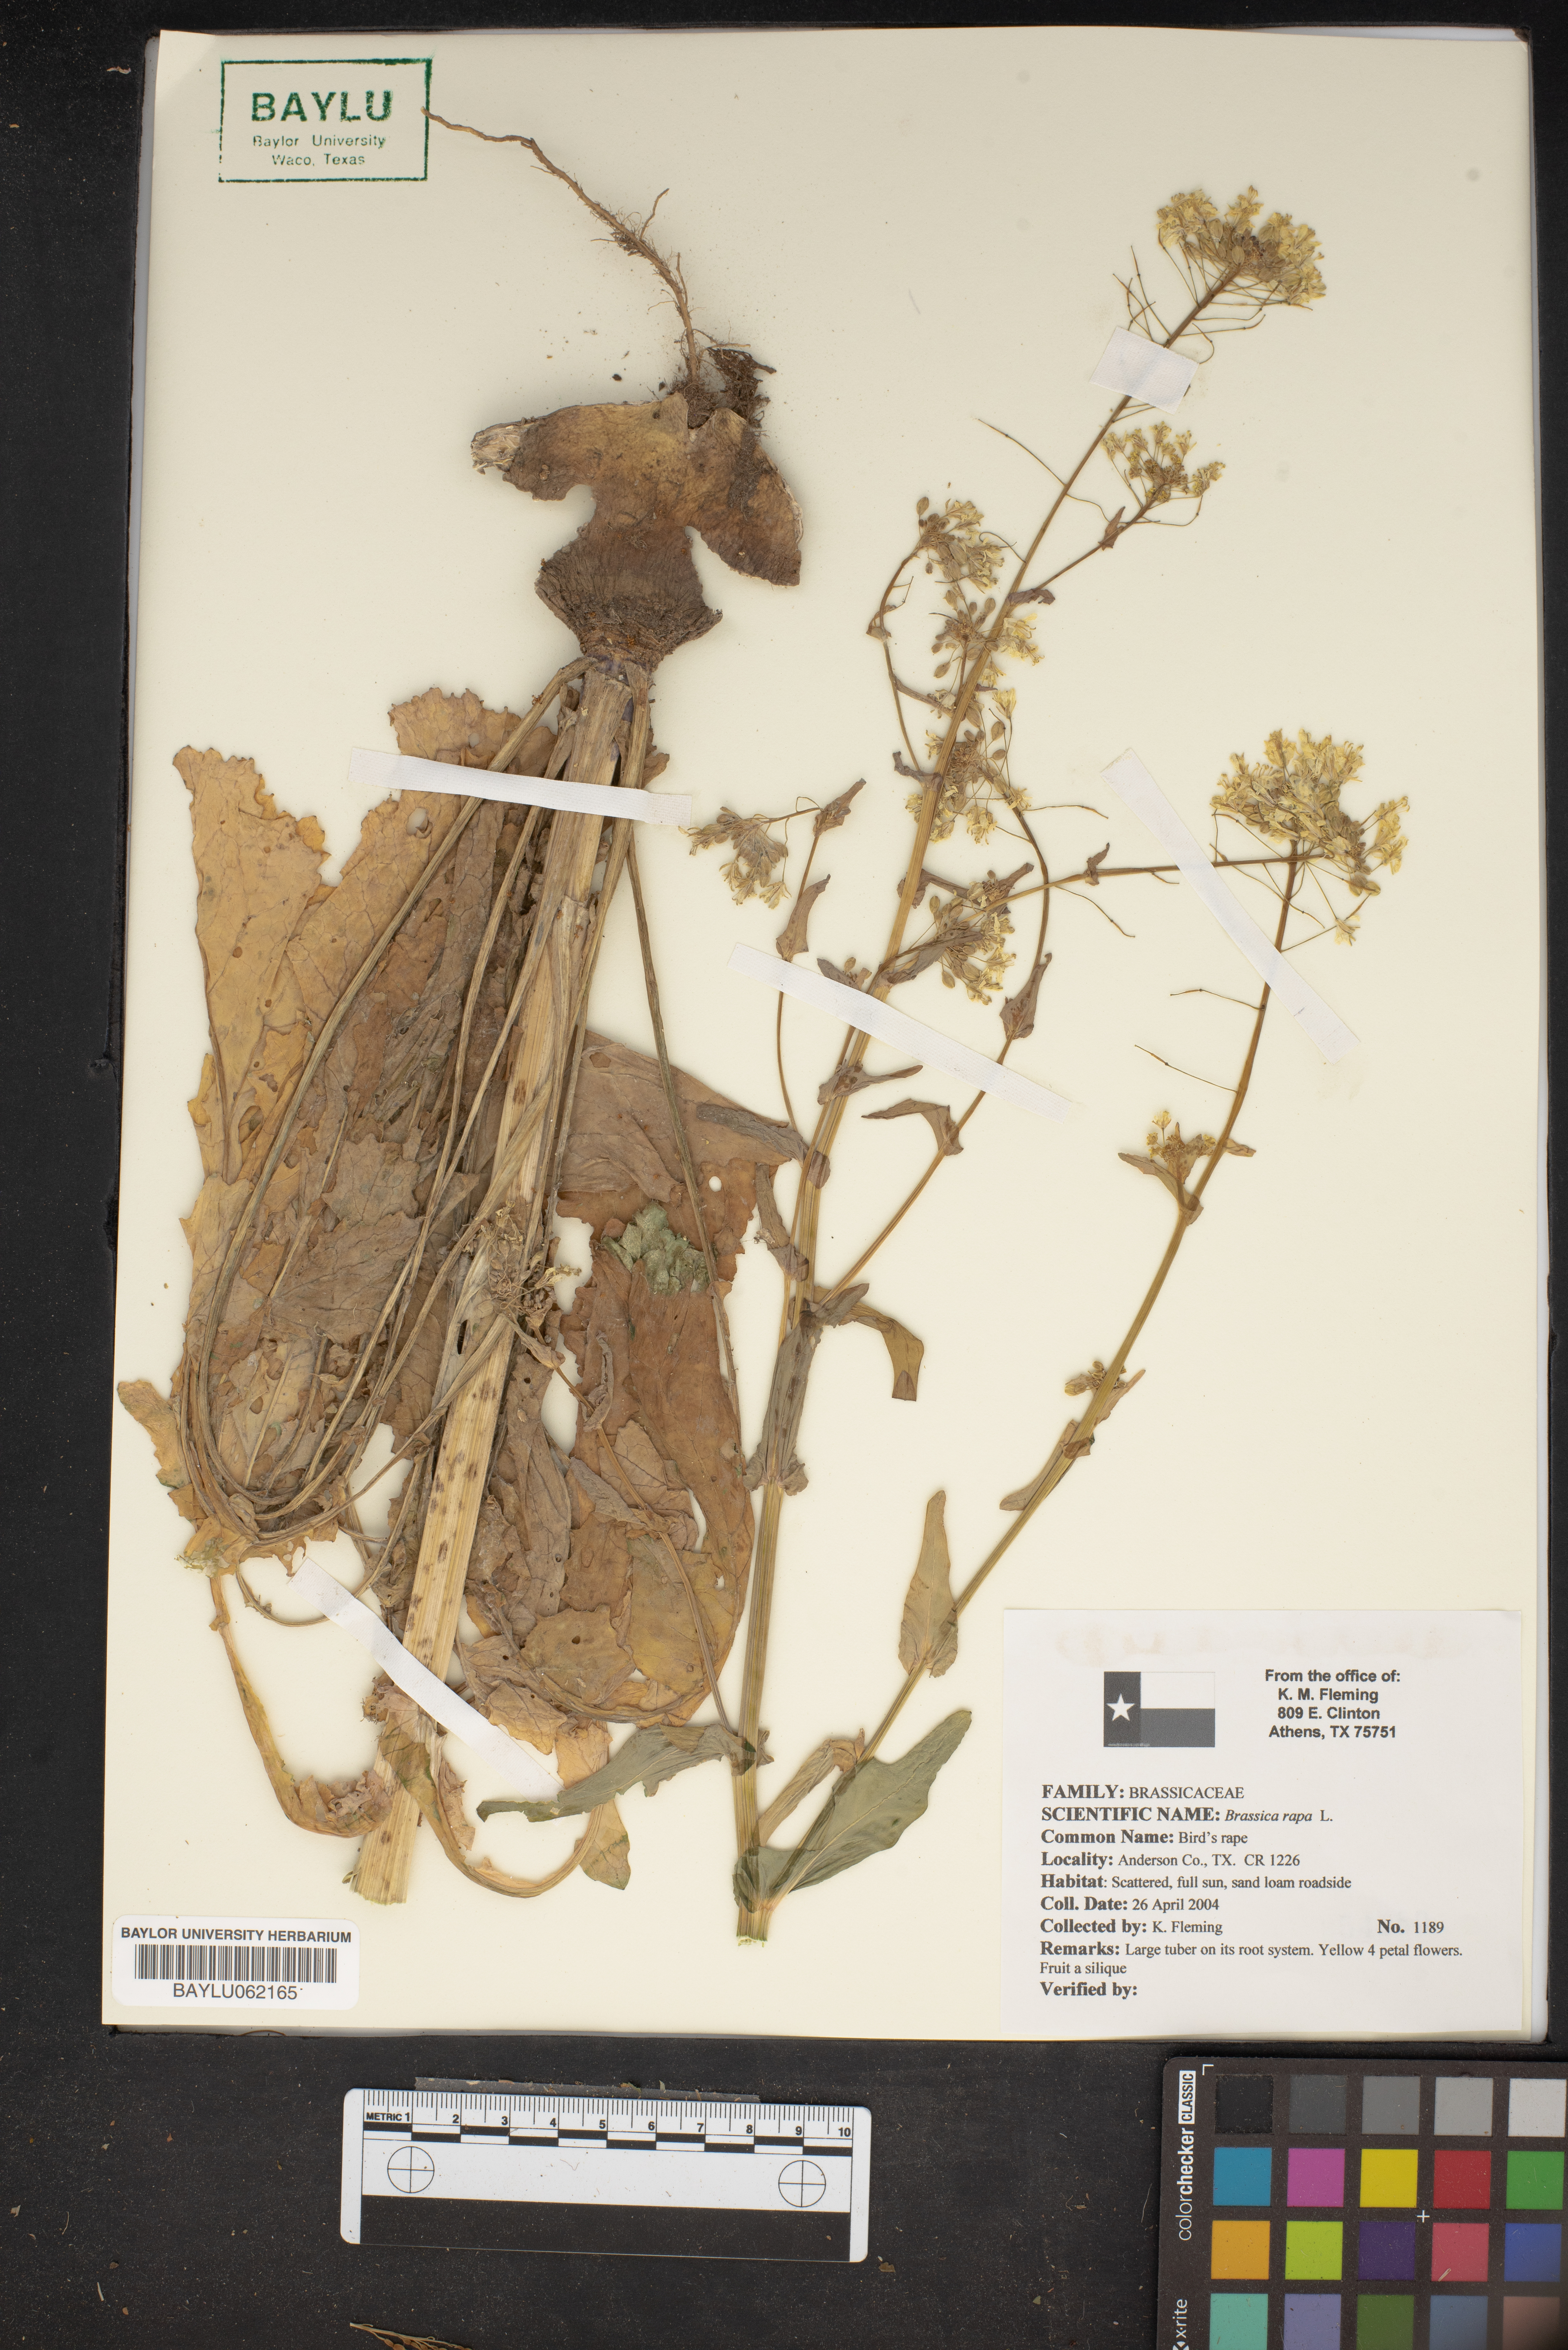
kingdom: Plantae
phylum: Tracheophyta
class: Magnoliopsida
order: Brassicales
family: Brassicaceae
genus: Brassica
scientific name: Brassica rapa
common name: Field mustard
